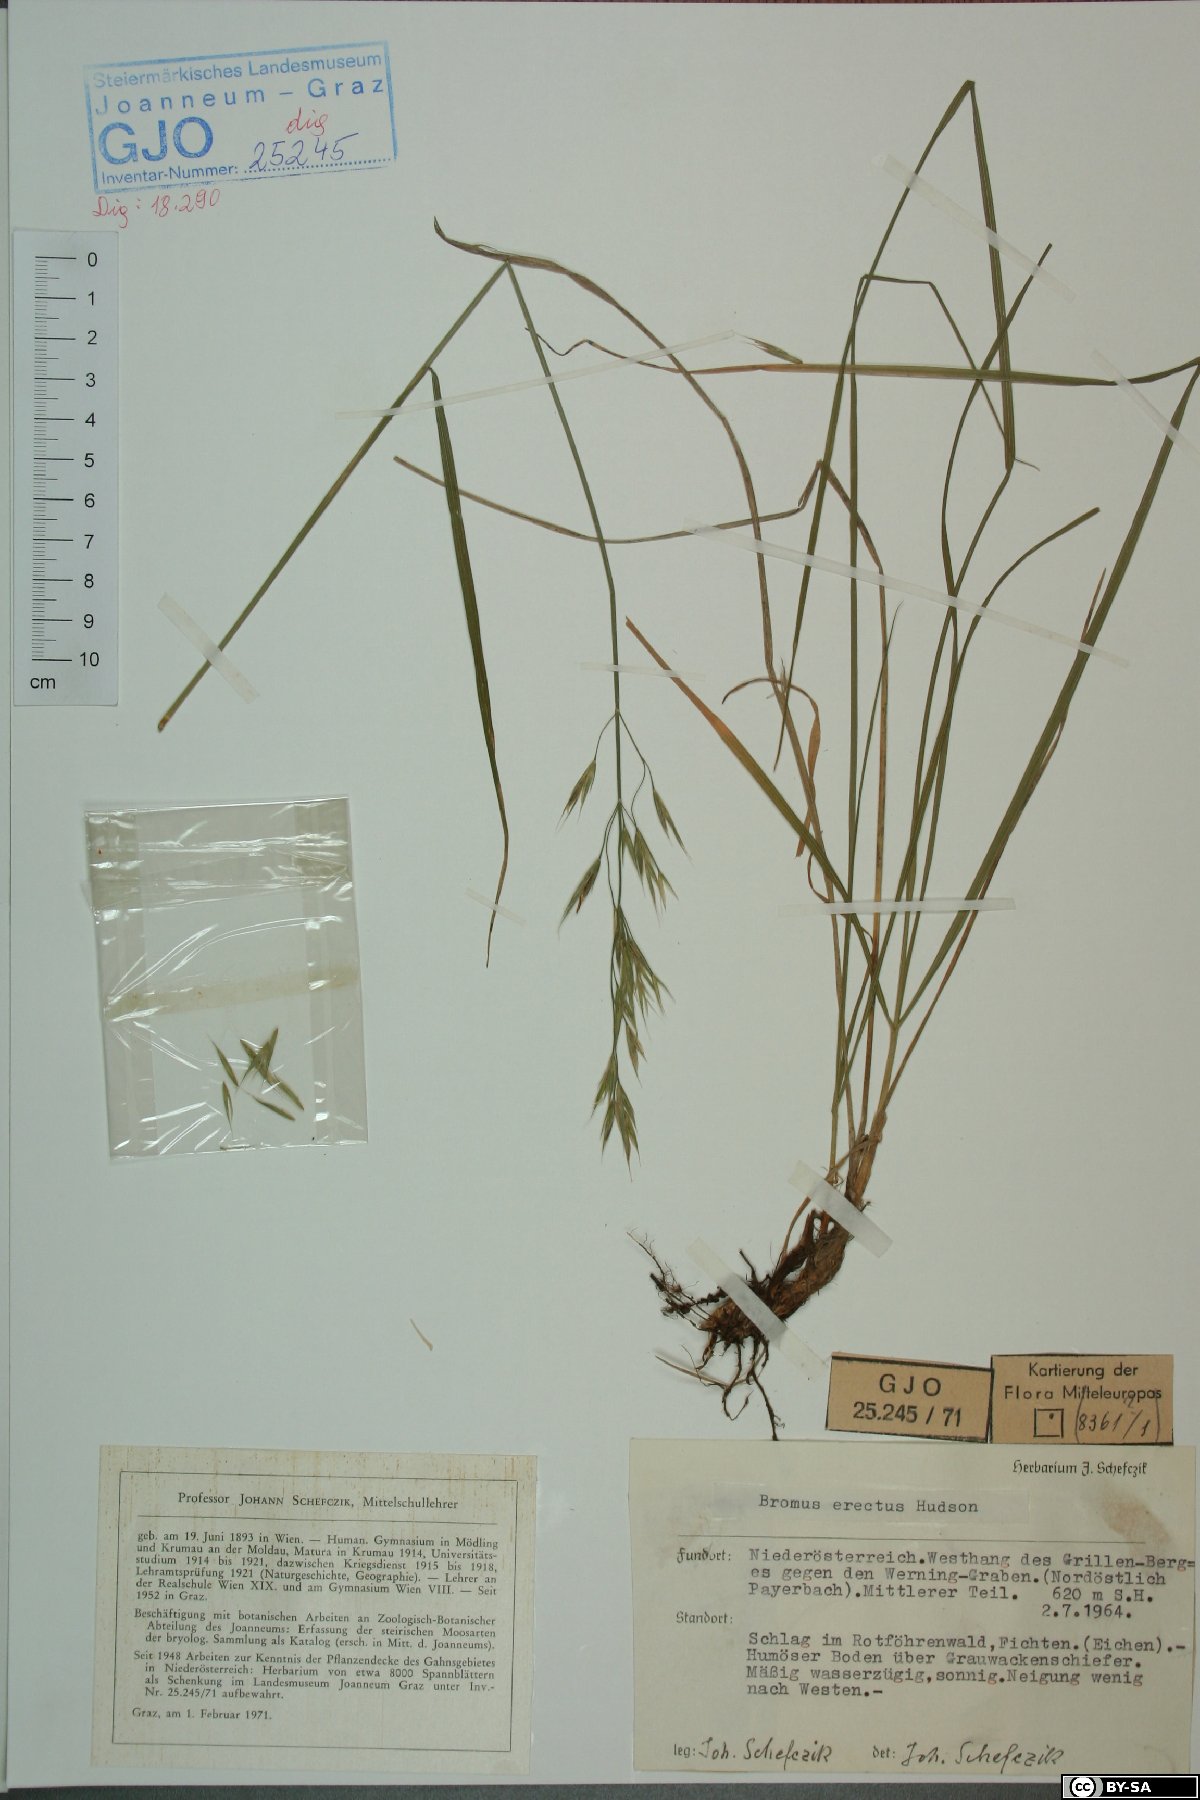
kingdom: Plantae
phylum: Tracheophyta
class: Liliopsida
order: Poales
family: Poaceae
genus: Bromus
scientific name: Bromus erectus
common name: Erect brome
